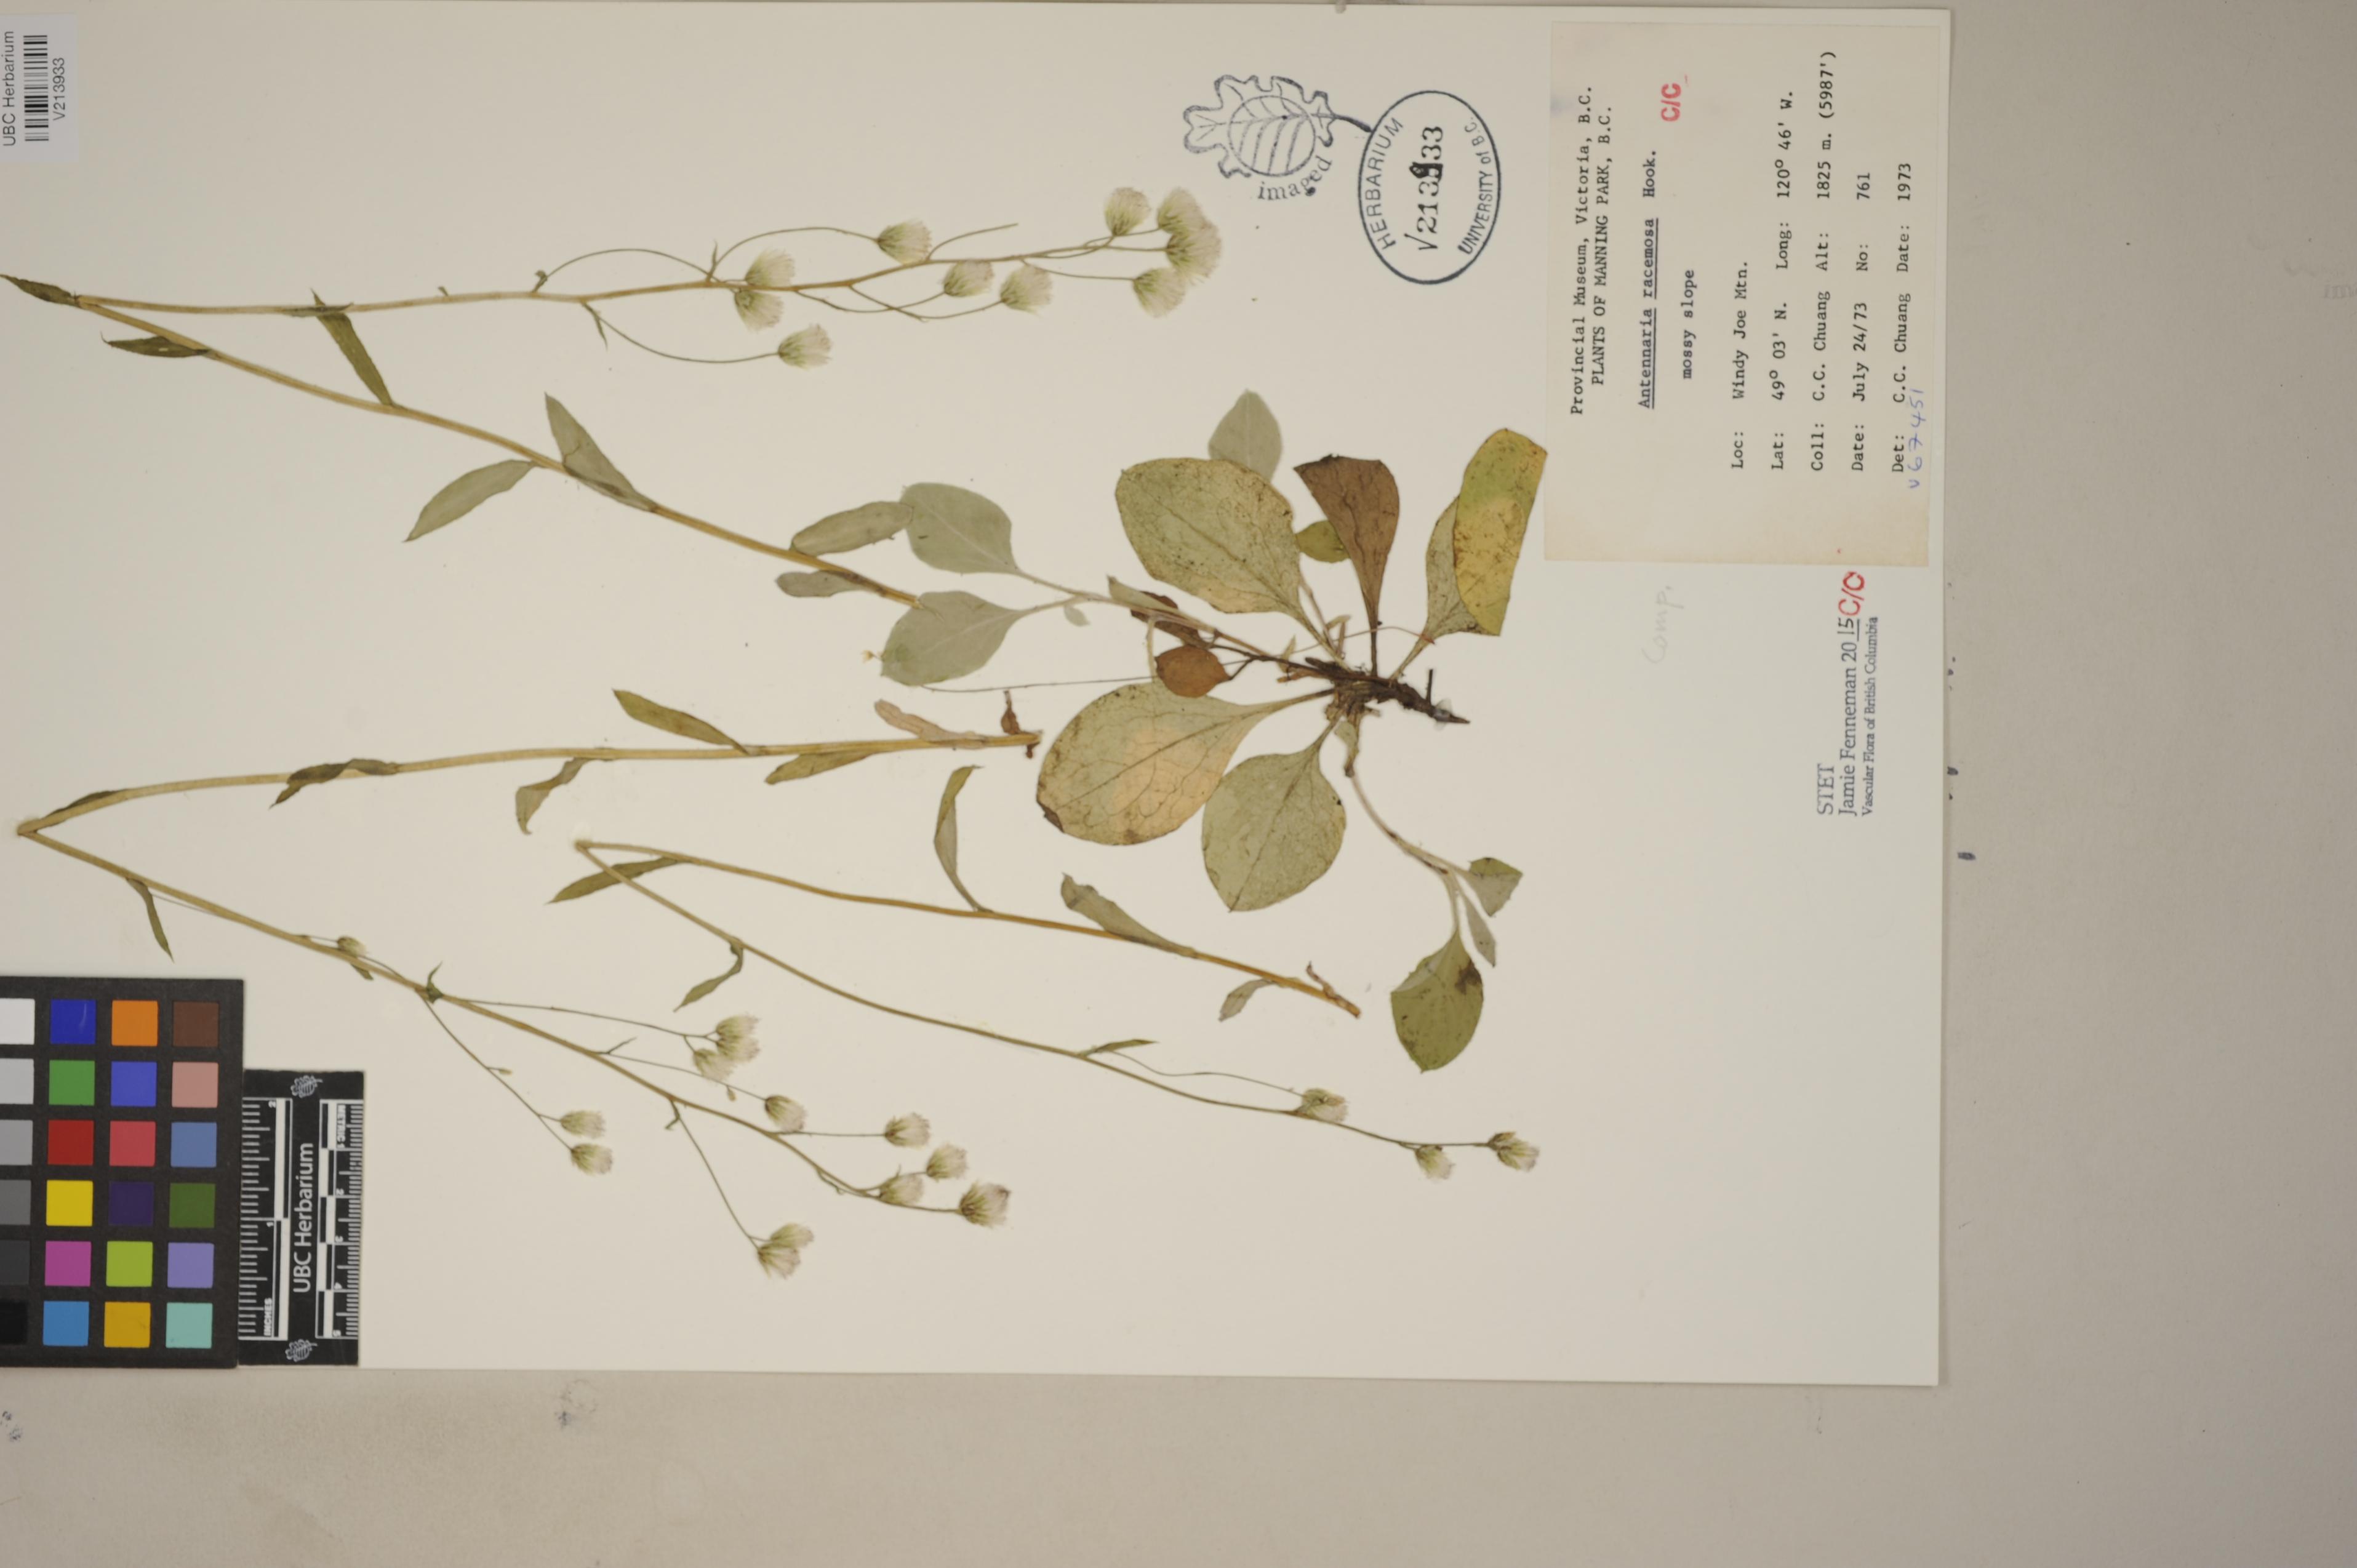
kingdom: Plantae
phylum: Tracheophyta
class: Magnoliopsida
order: Asterales
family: Asteraceae
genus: Antennaria
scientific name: Antennaria racemosa
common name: Racemose pussytoes
